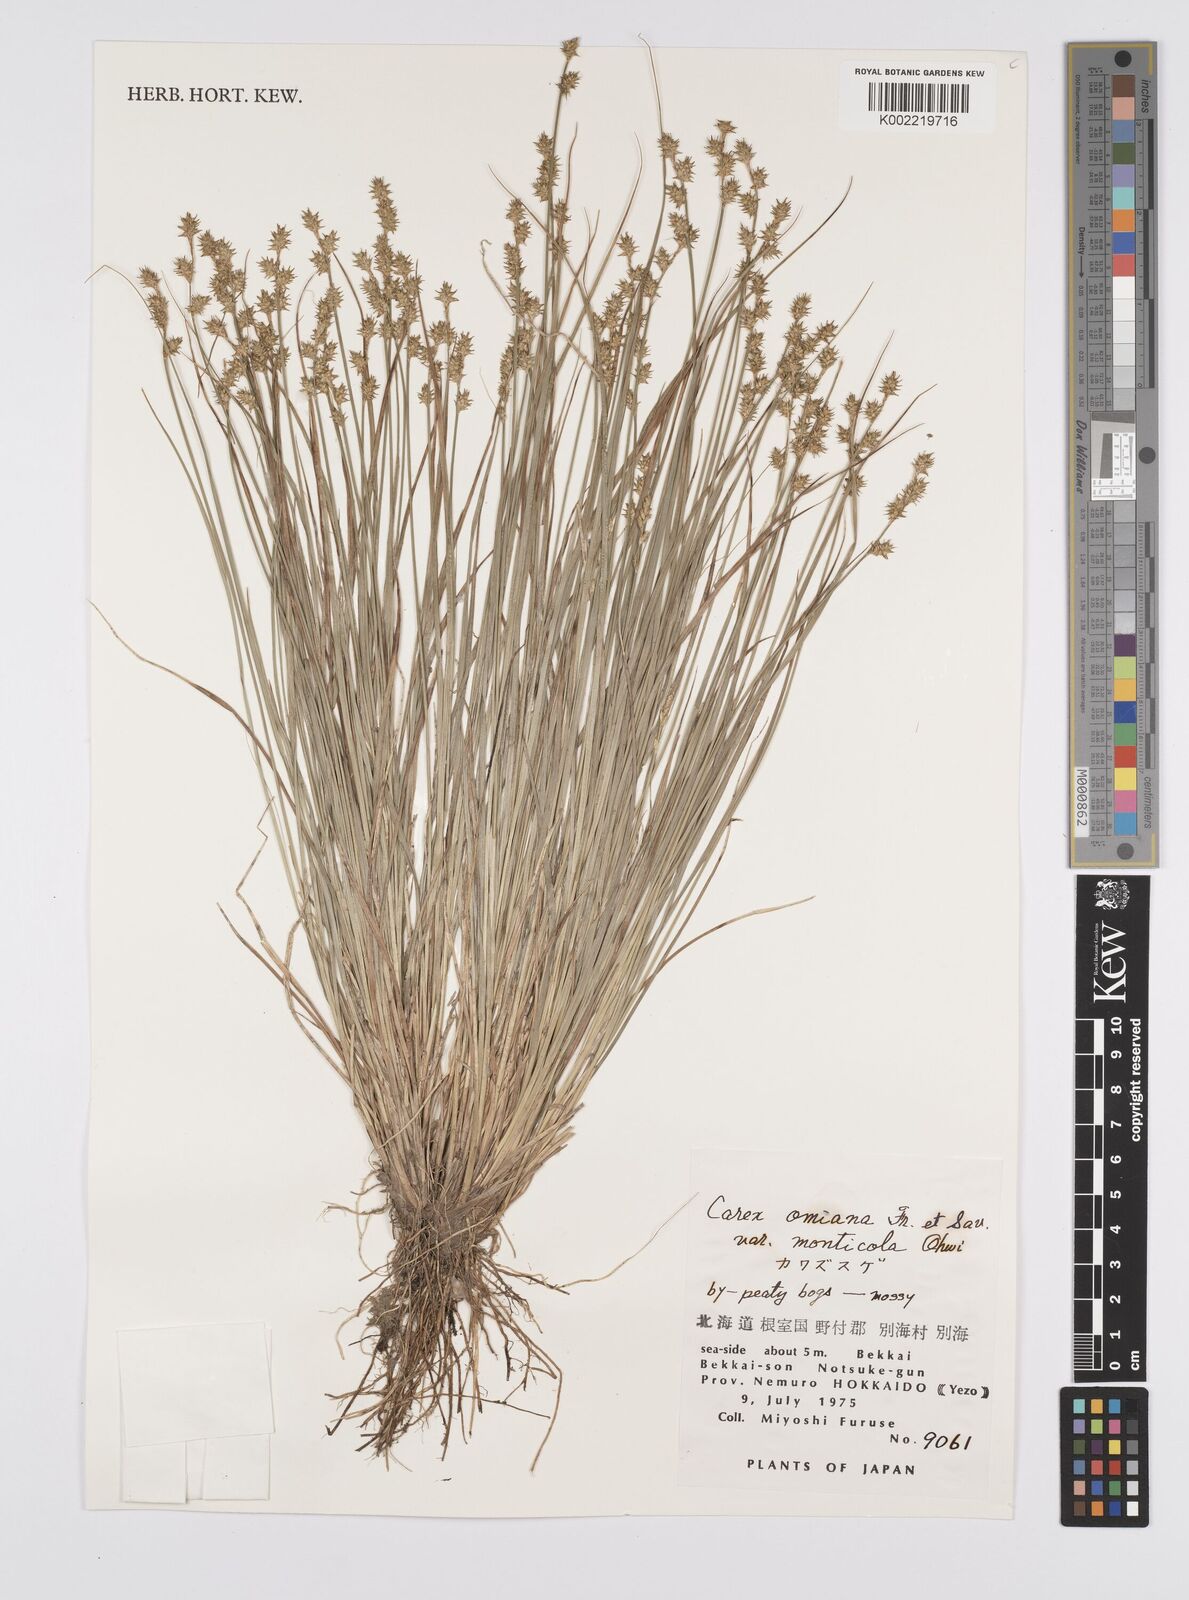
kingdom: Plantae
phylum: Tracheophyta
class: Liliopsida
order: Poales
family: Cyperaceae
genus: Carex
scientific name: Carex omiana
